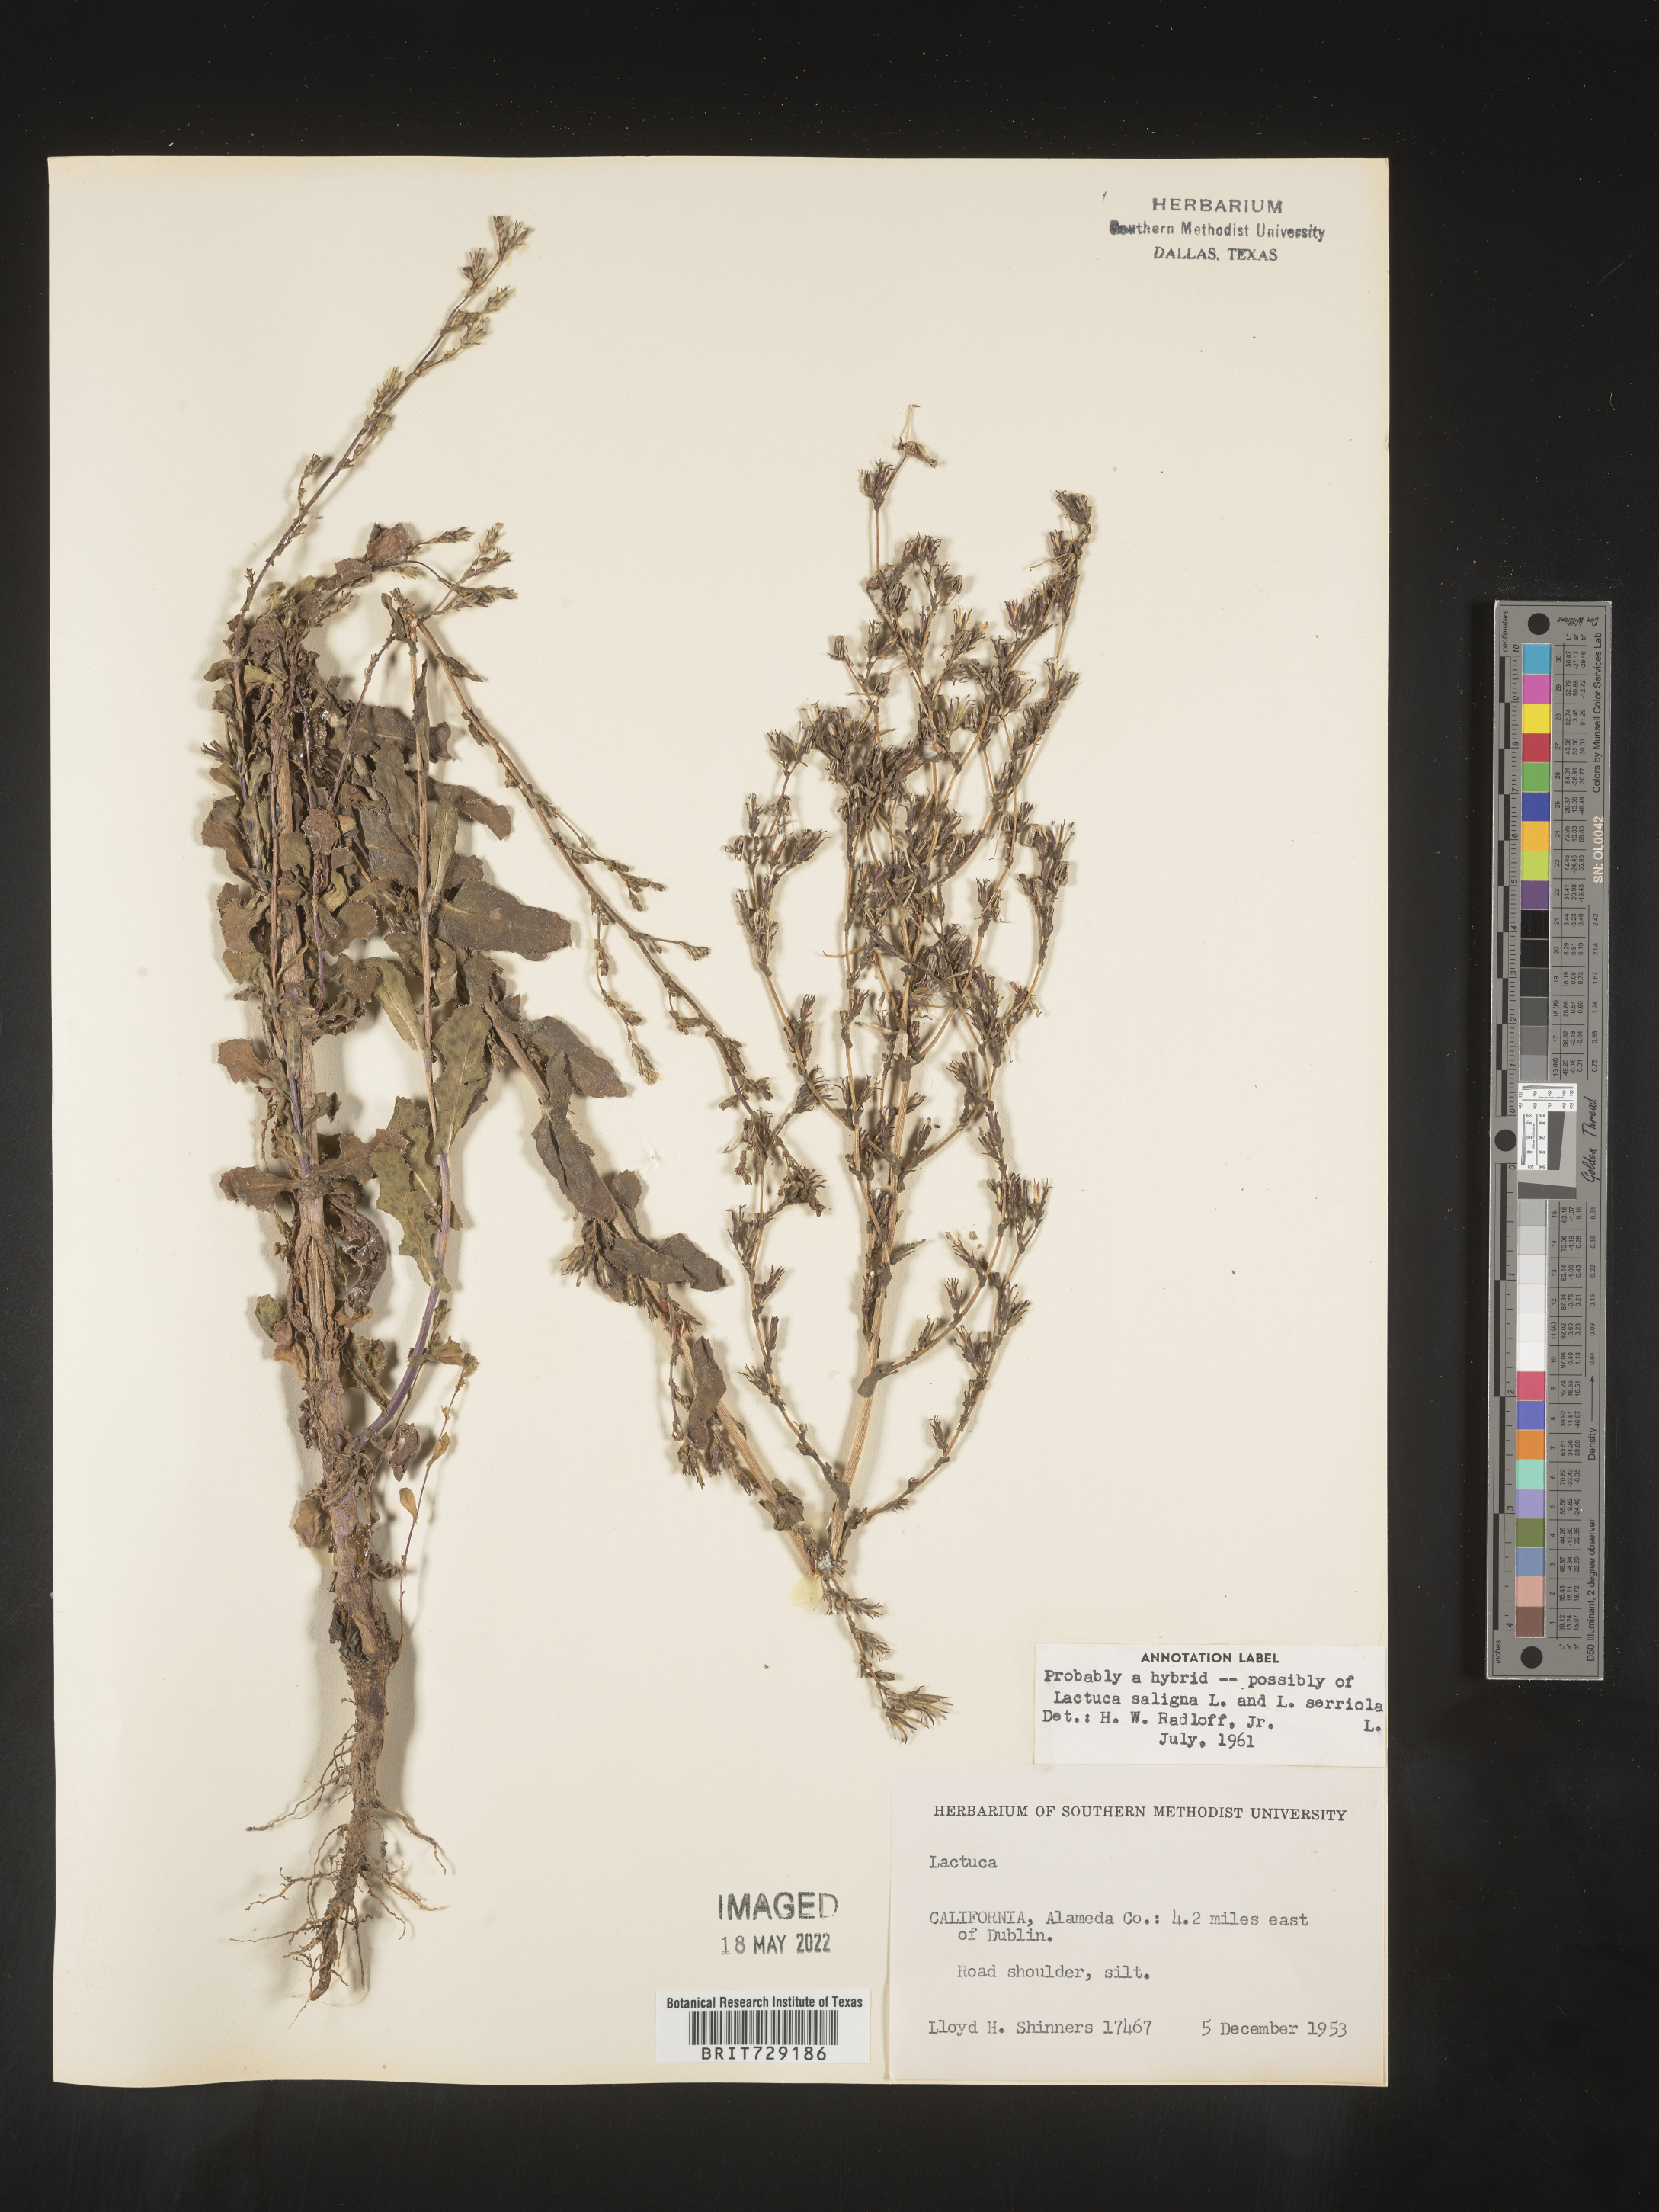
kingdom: Plantae
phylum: Tracheophyta
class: Magnoliopsida
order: Asterales
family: Asteraceae
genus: Lactuca
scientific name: Lactuca saligna
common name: Wild lettuce
